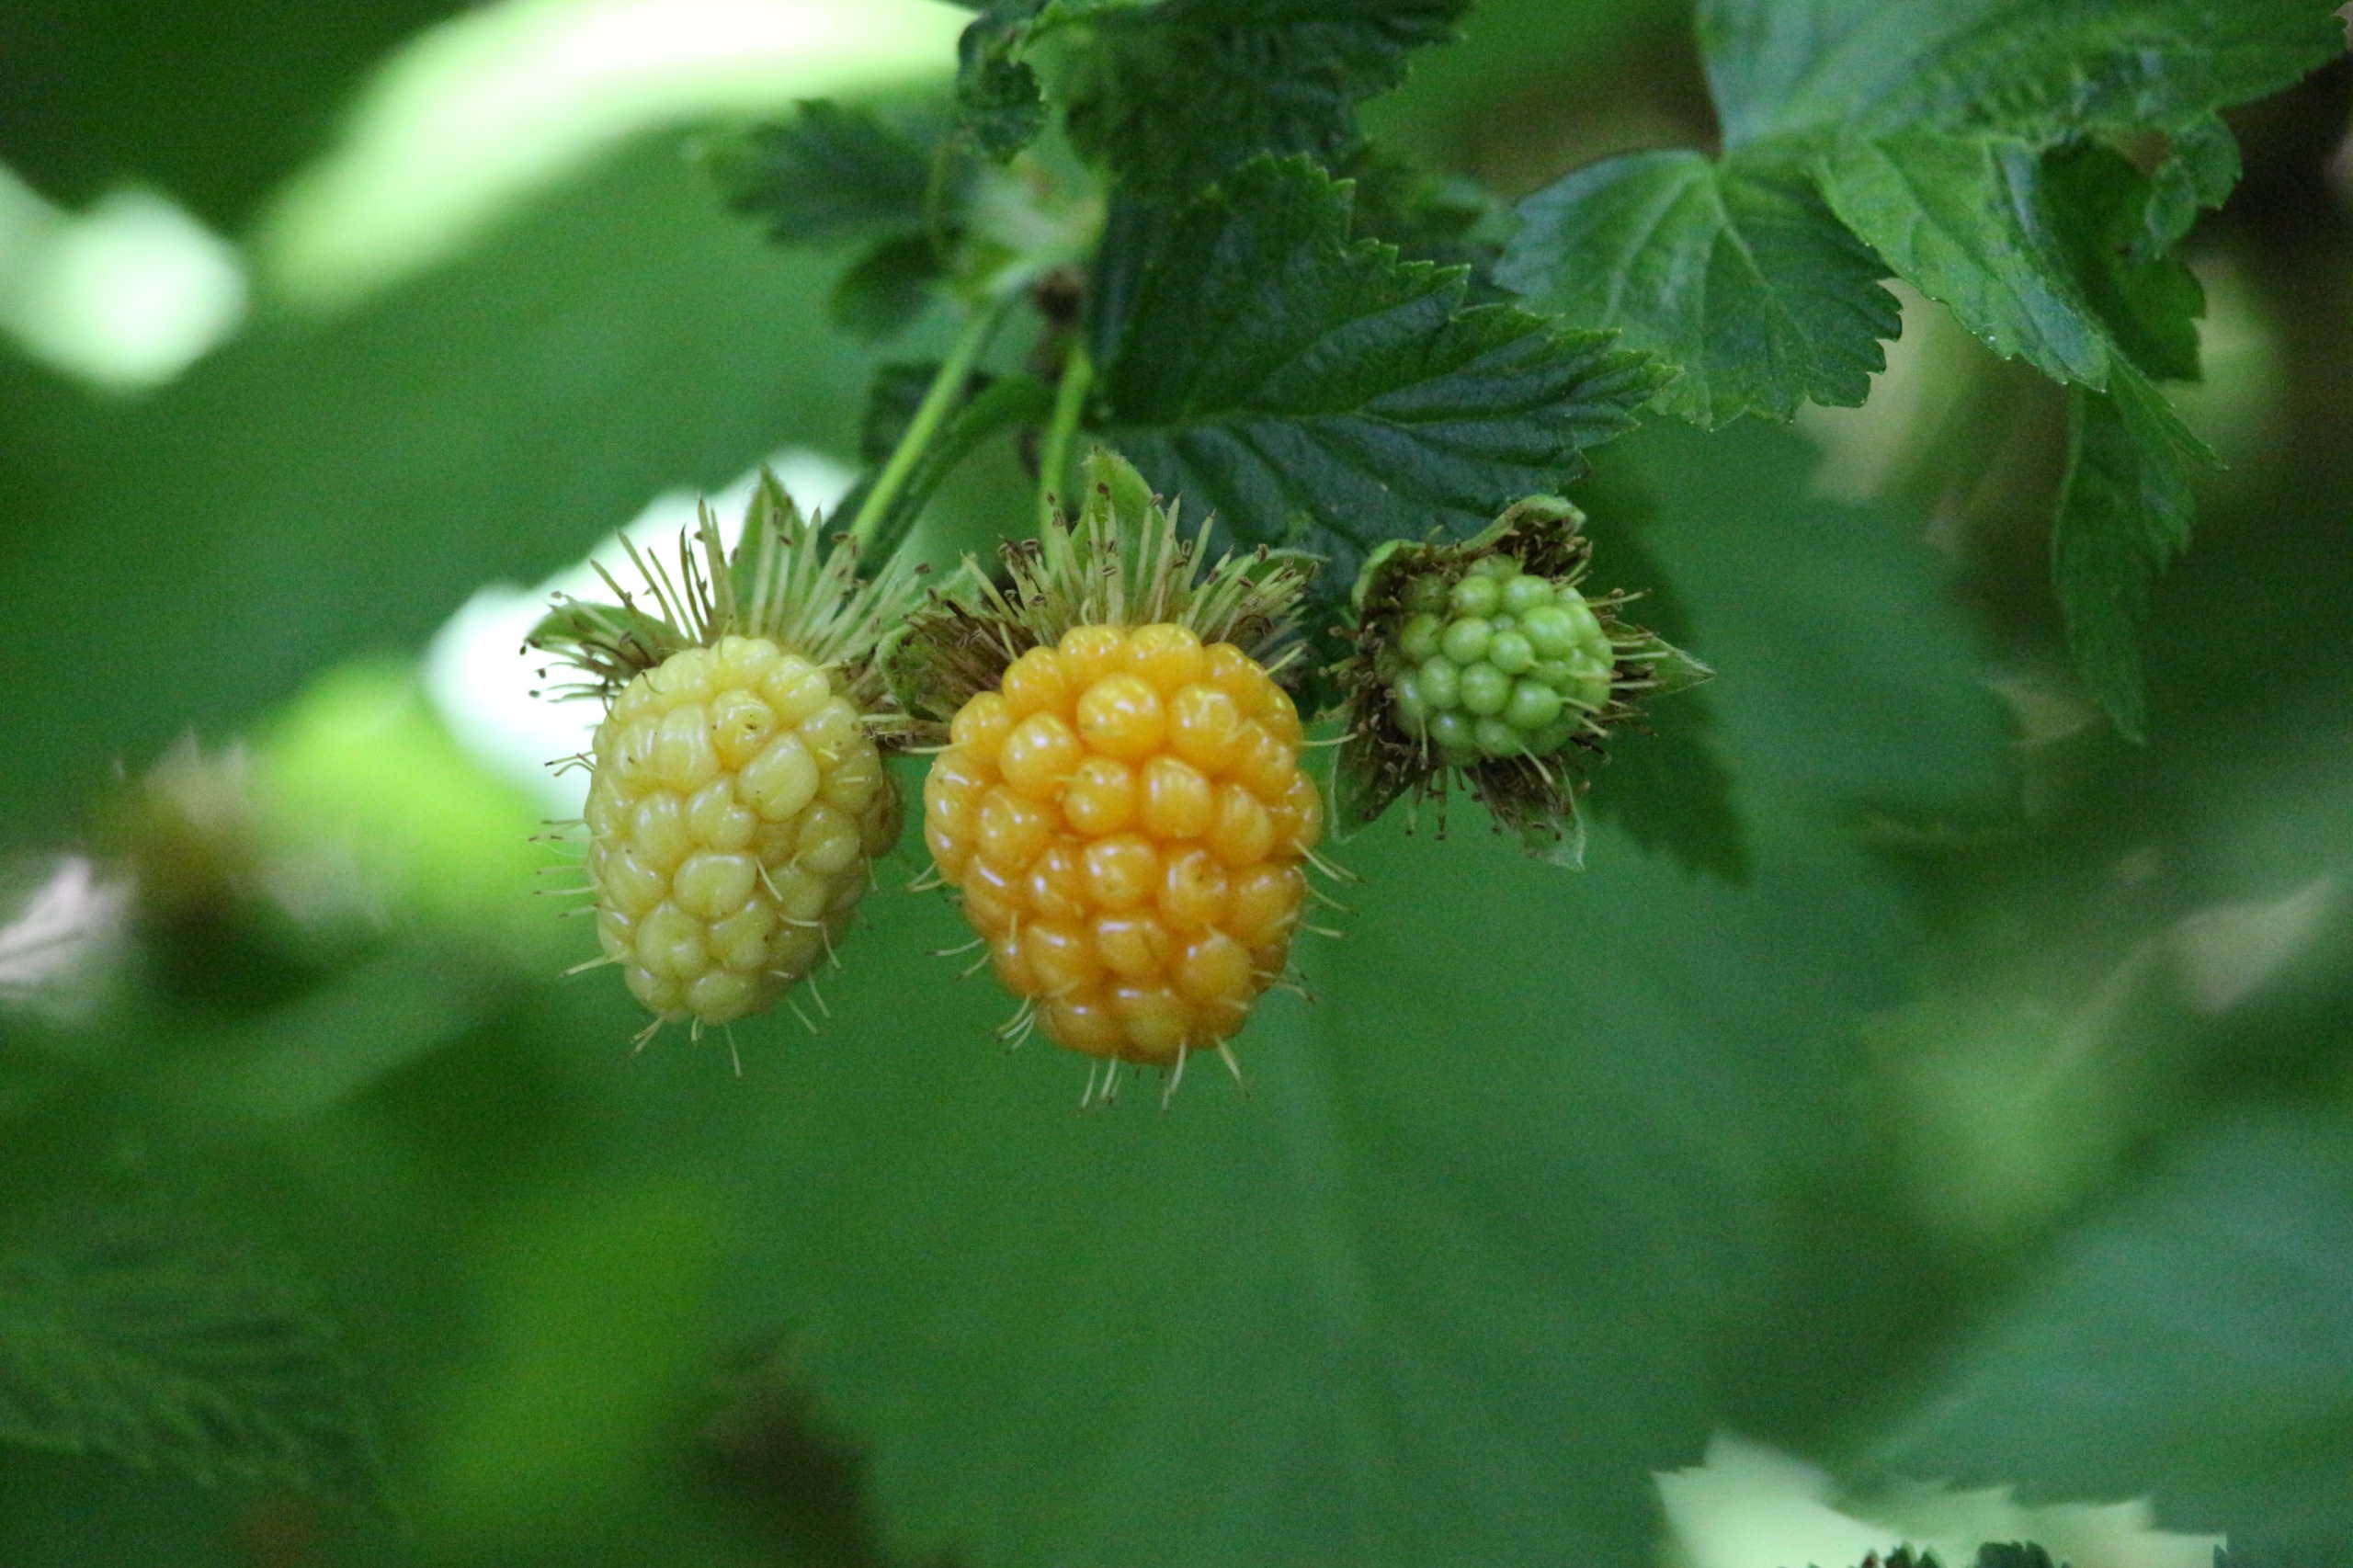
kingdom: Plantae
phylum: Tracheophyta
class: Magnoliopsida
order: Rosales
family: Rosaceae
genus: Rubus
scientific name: Rubus spectabilis
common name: Laksebær
